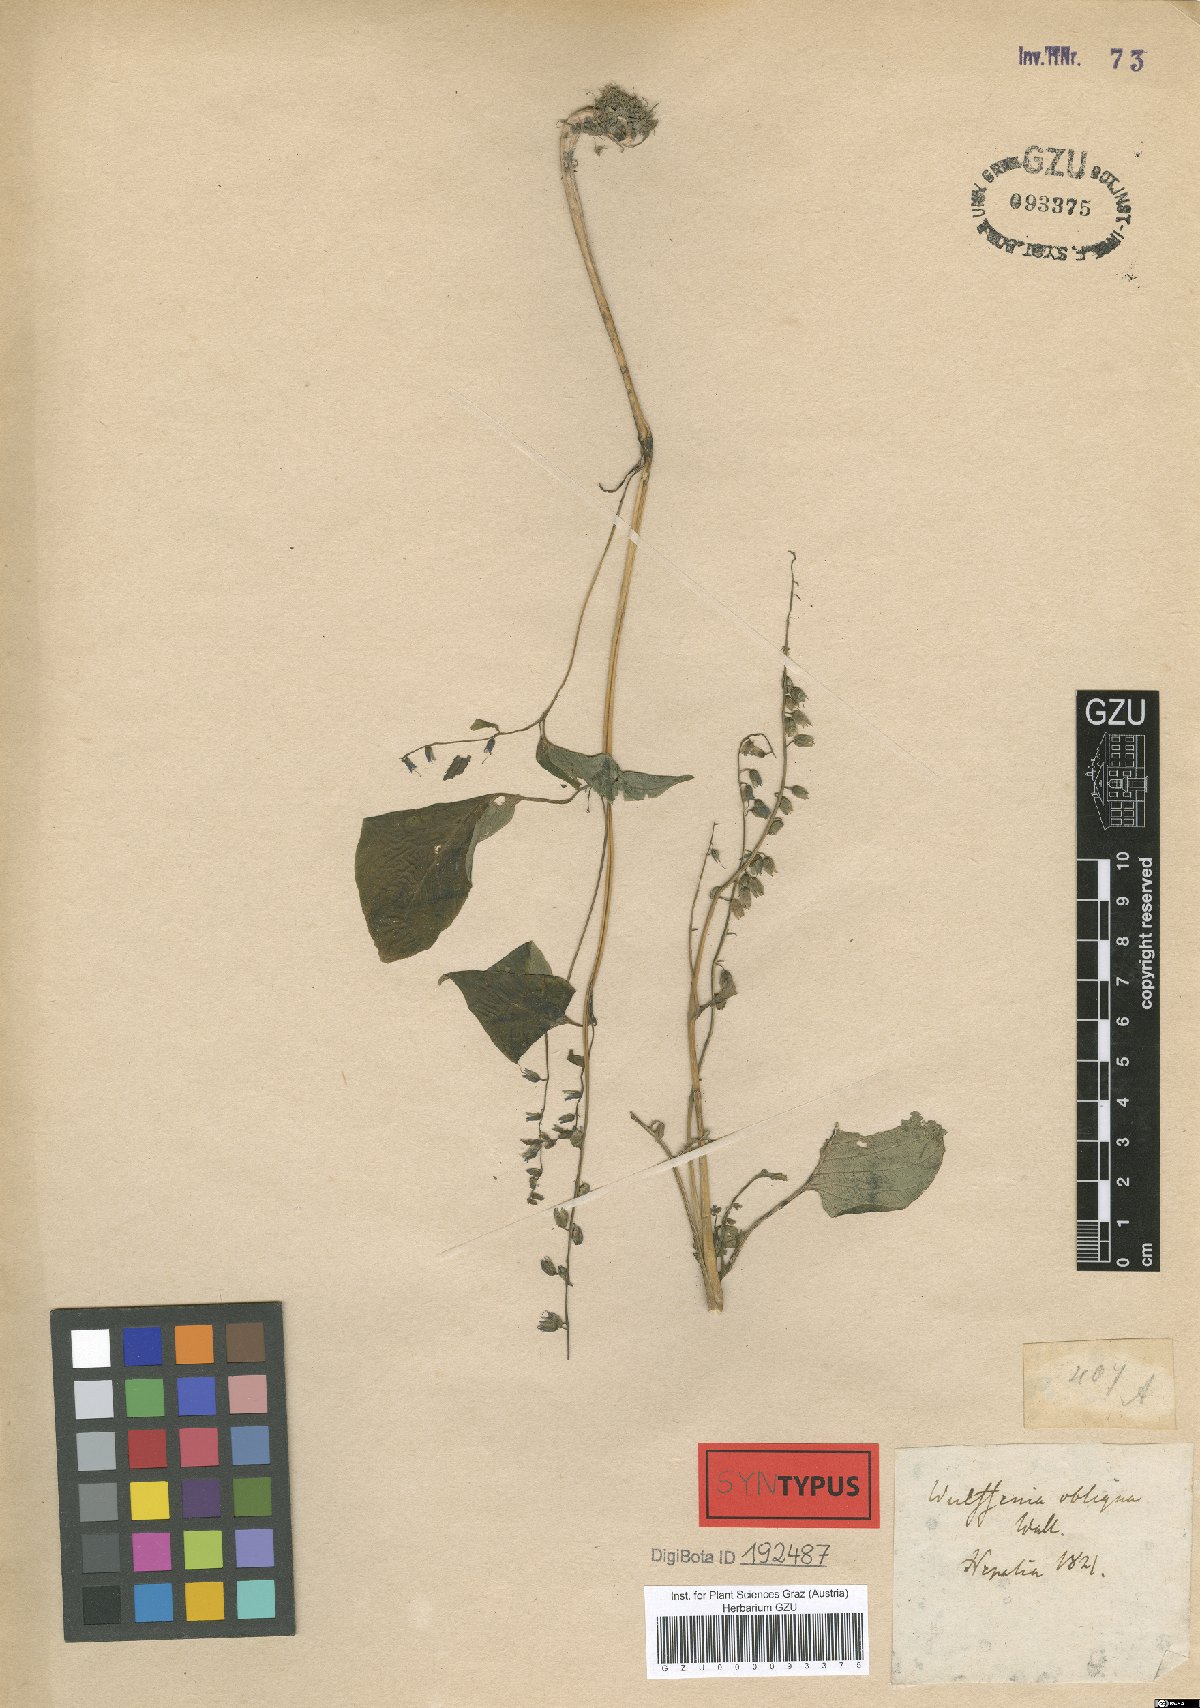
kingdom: Plantae
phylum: Tracheophyta
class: Magnoliopsida
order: Lamiales
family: Gesneriaceae
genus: Rhynchoglossum
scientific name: Rhynchoglossum obliquum
